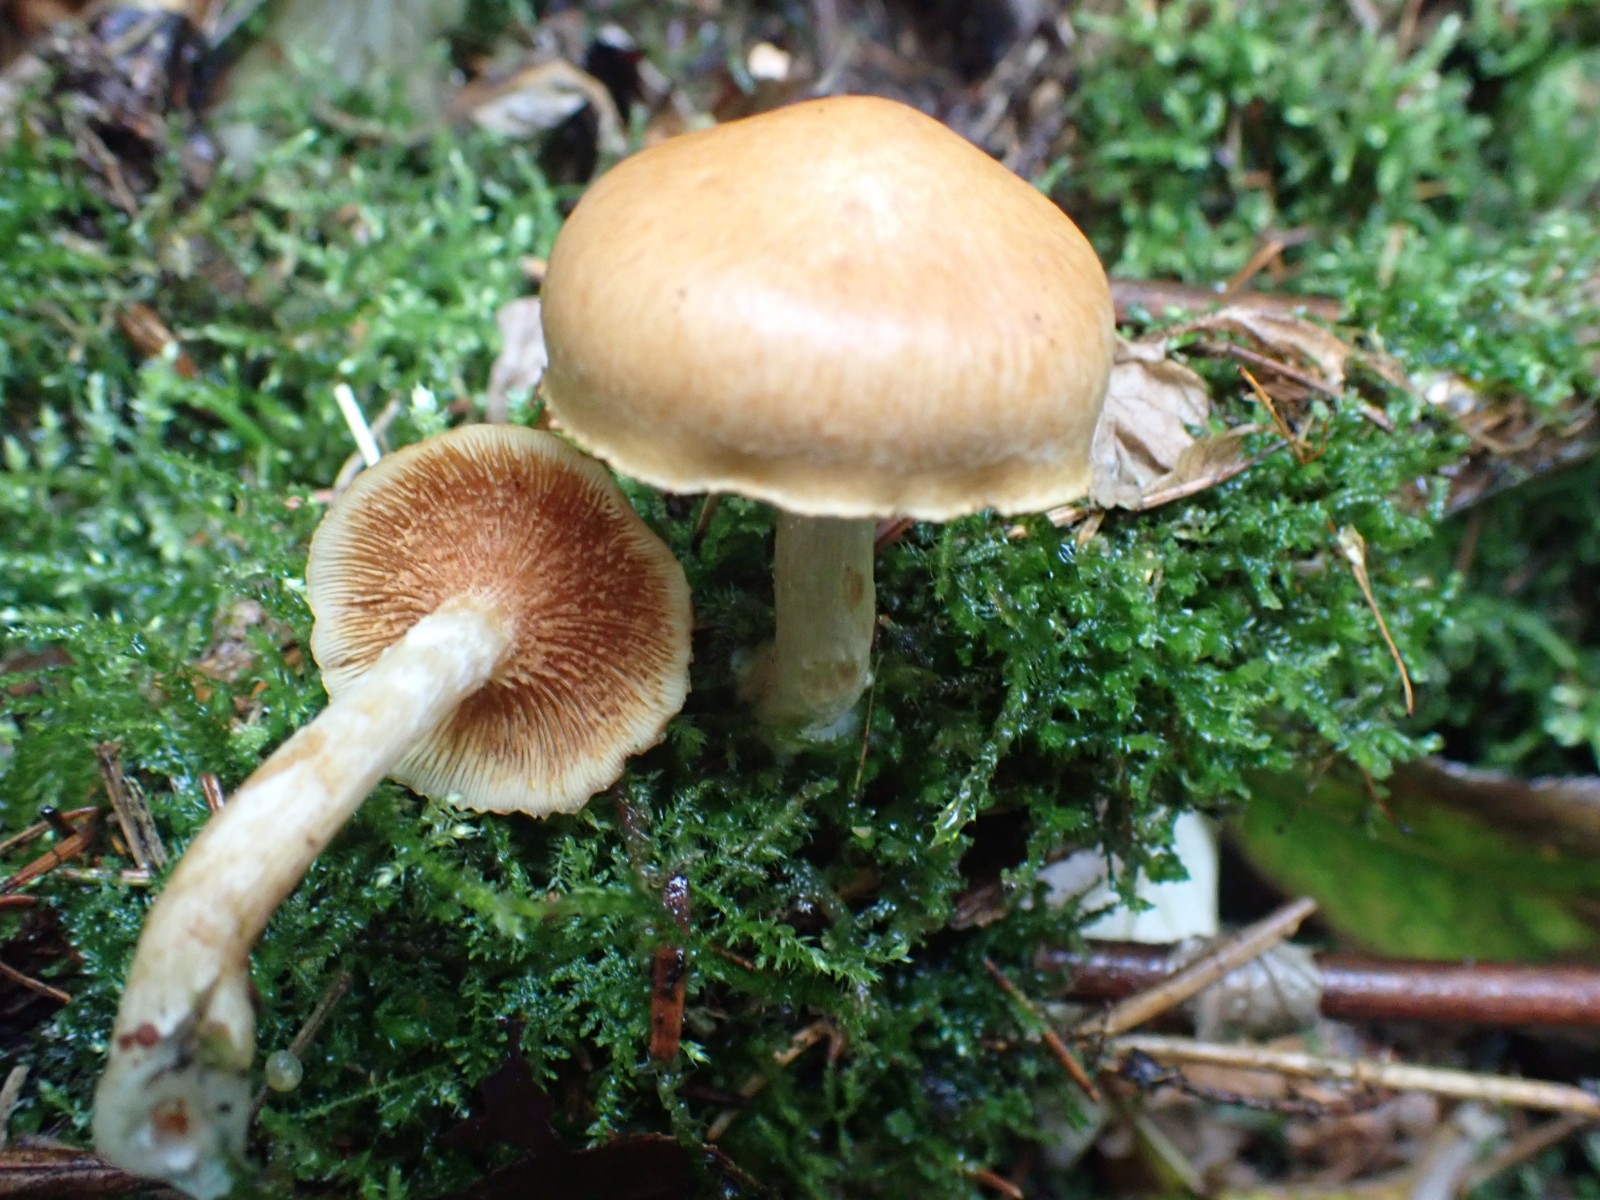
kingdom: Fungi
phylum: Basidiomycota
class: Agaricomycetes
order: Agaricales
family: Hymenogastraceae
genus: Gymnopilus
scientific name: Gymnopilus penetrans
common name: plettet flammehat
